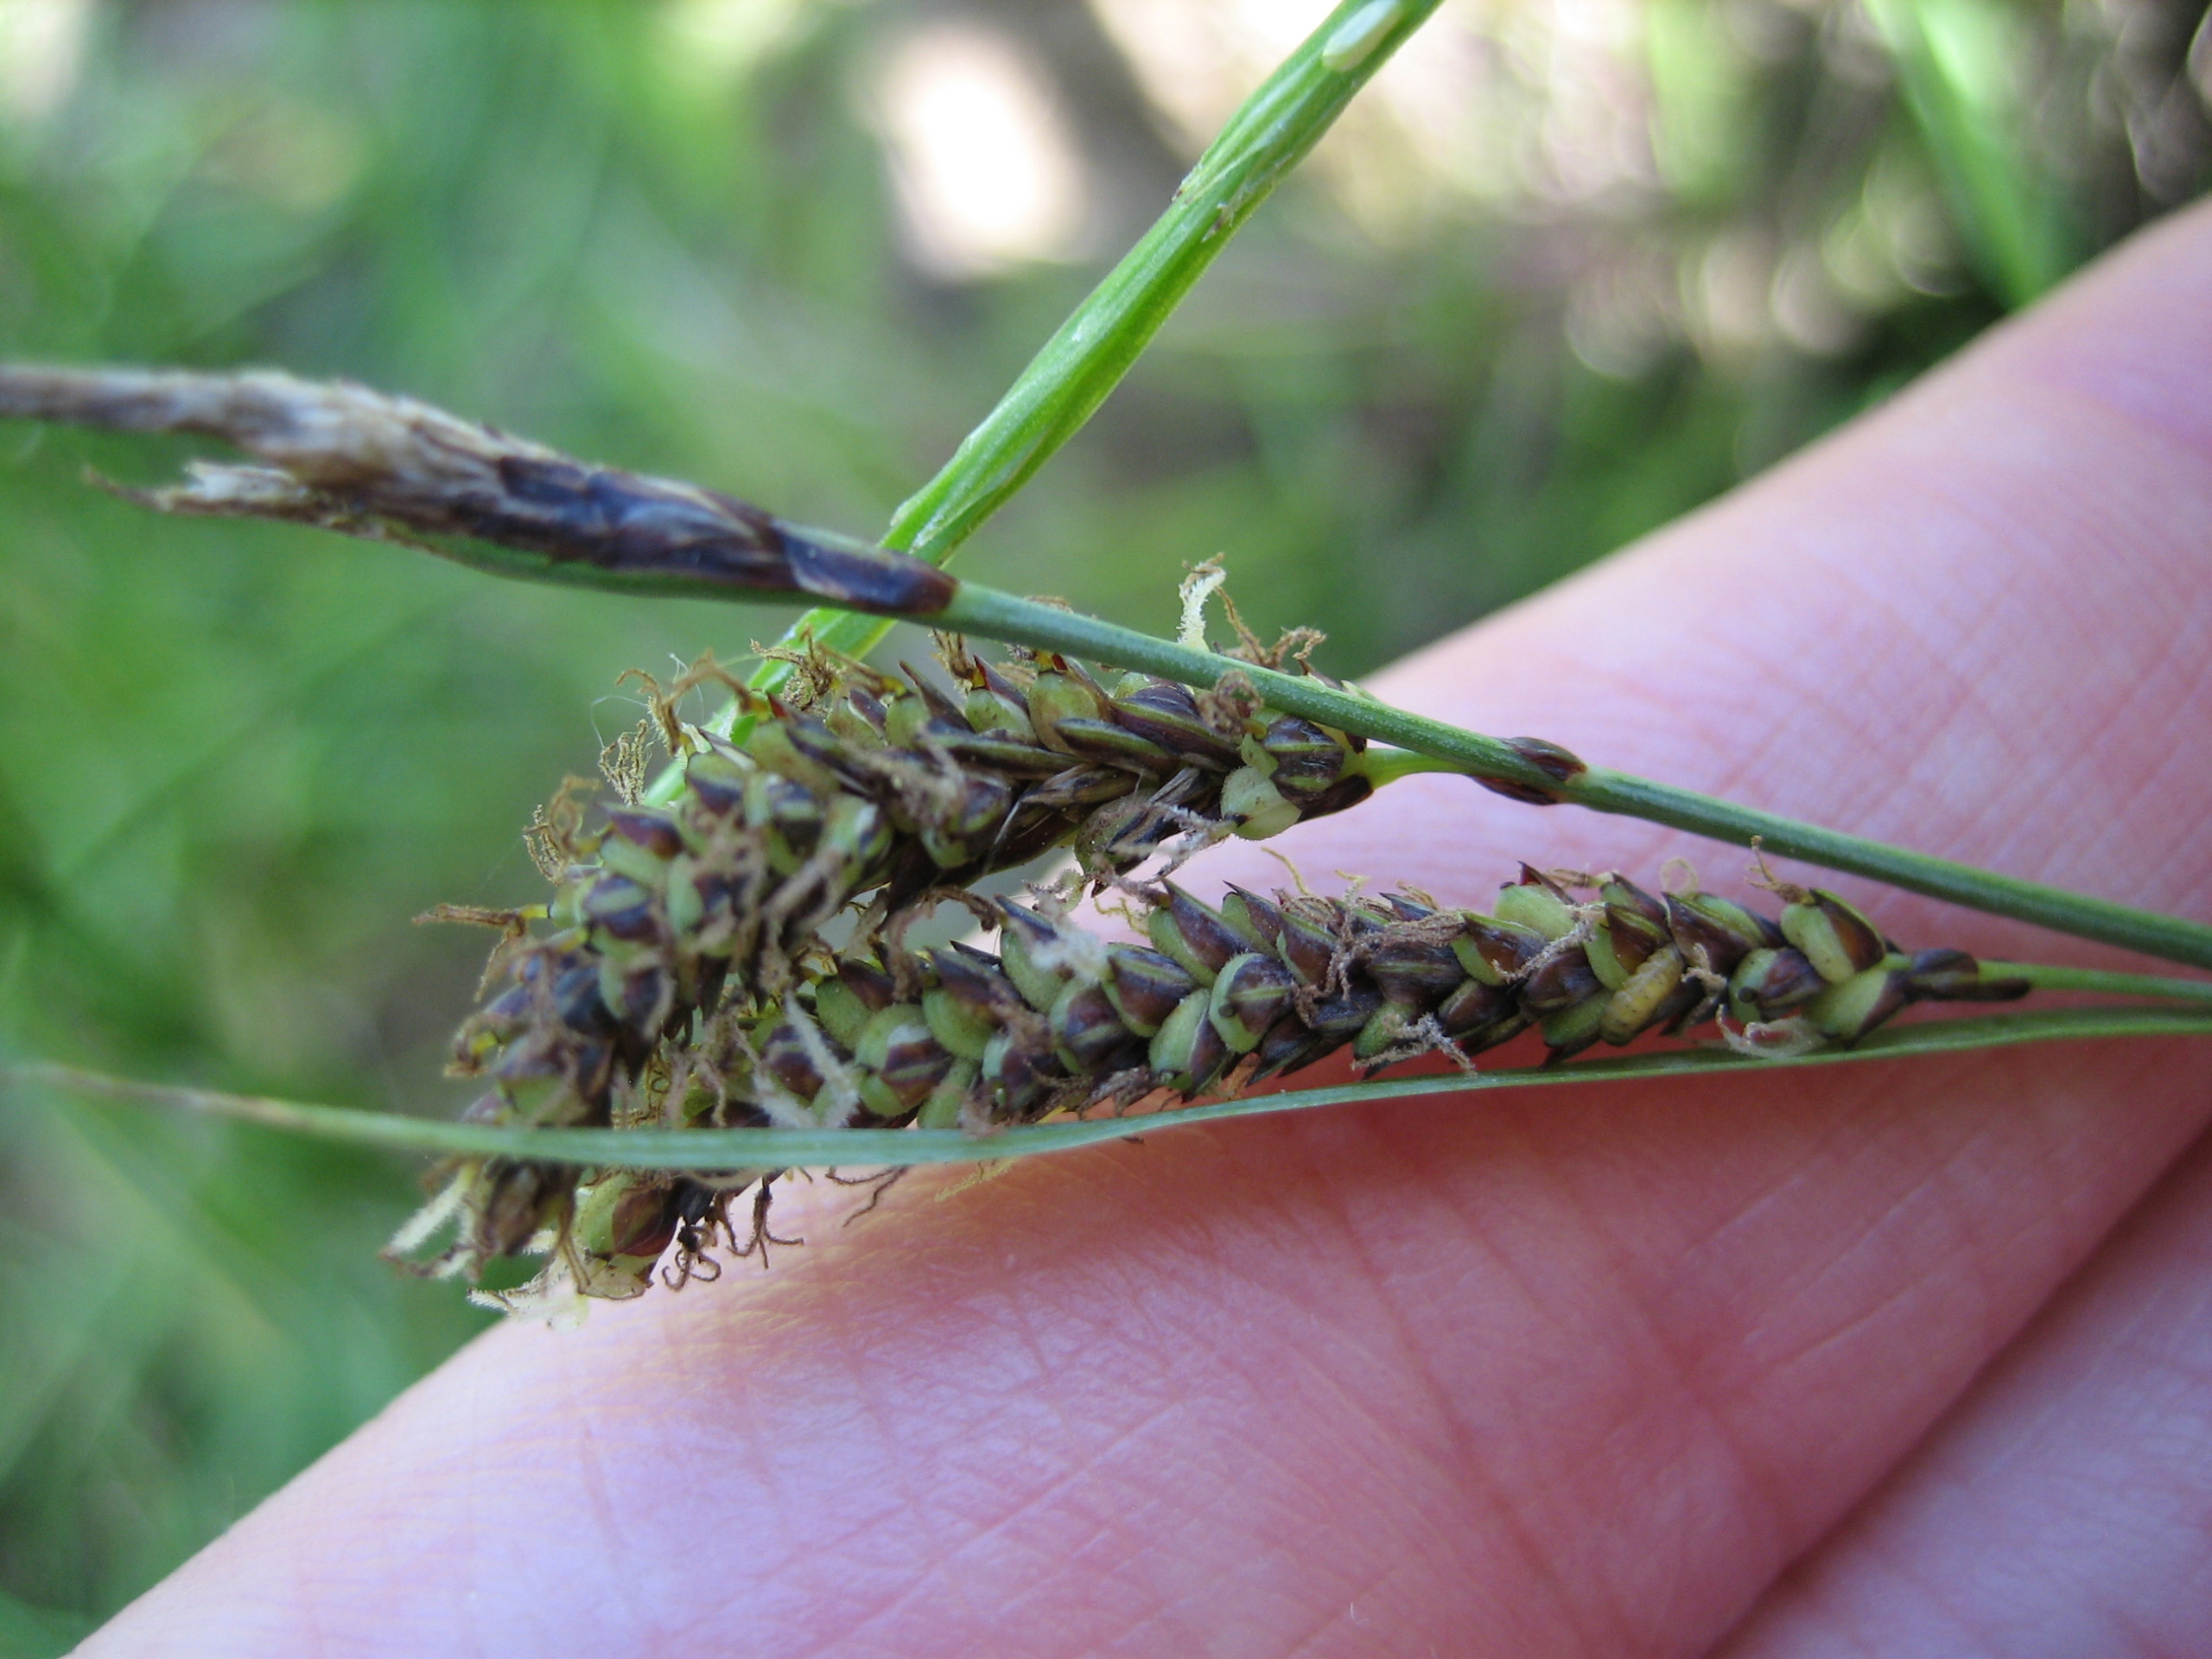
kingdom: Plantae
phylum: Tracheophyta
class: Liliopsida
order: Poales
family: Cyperaceae
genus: Carex
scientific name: Carex flacca
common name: Blågrøn star
